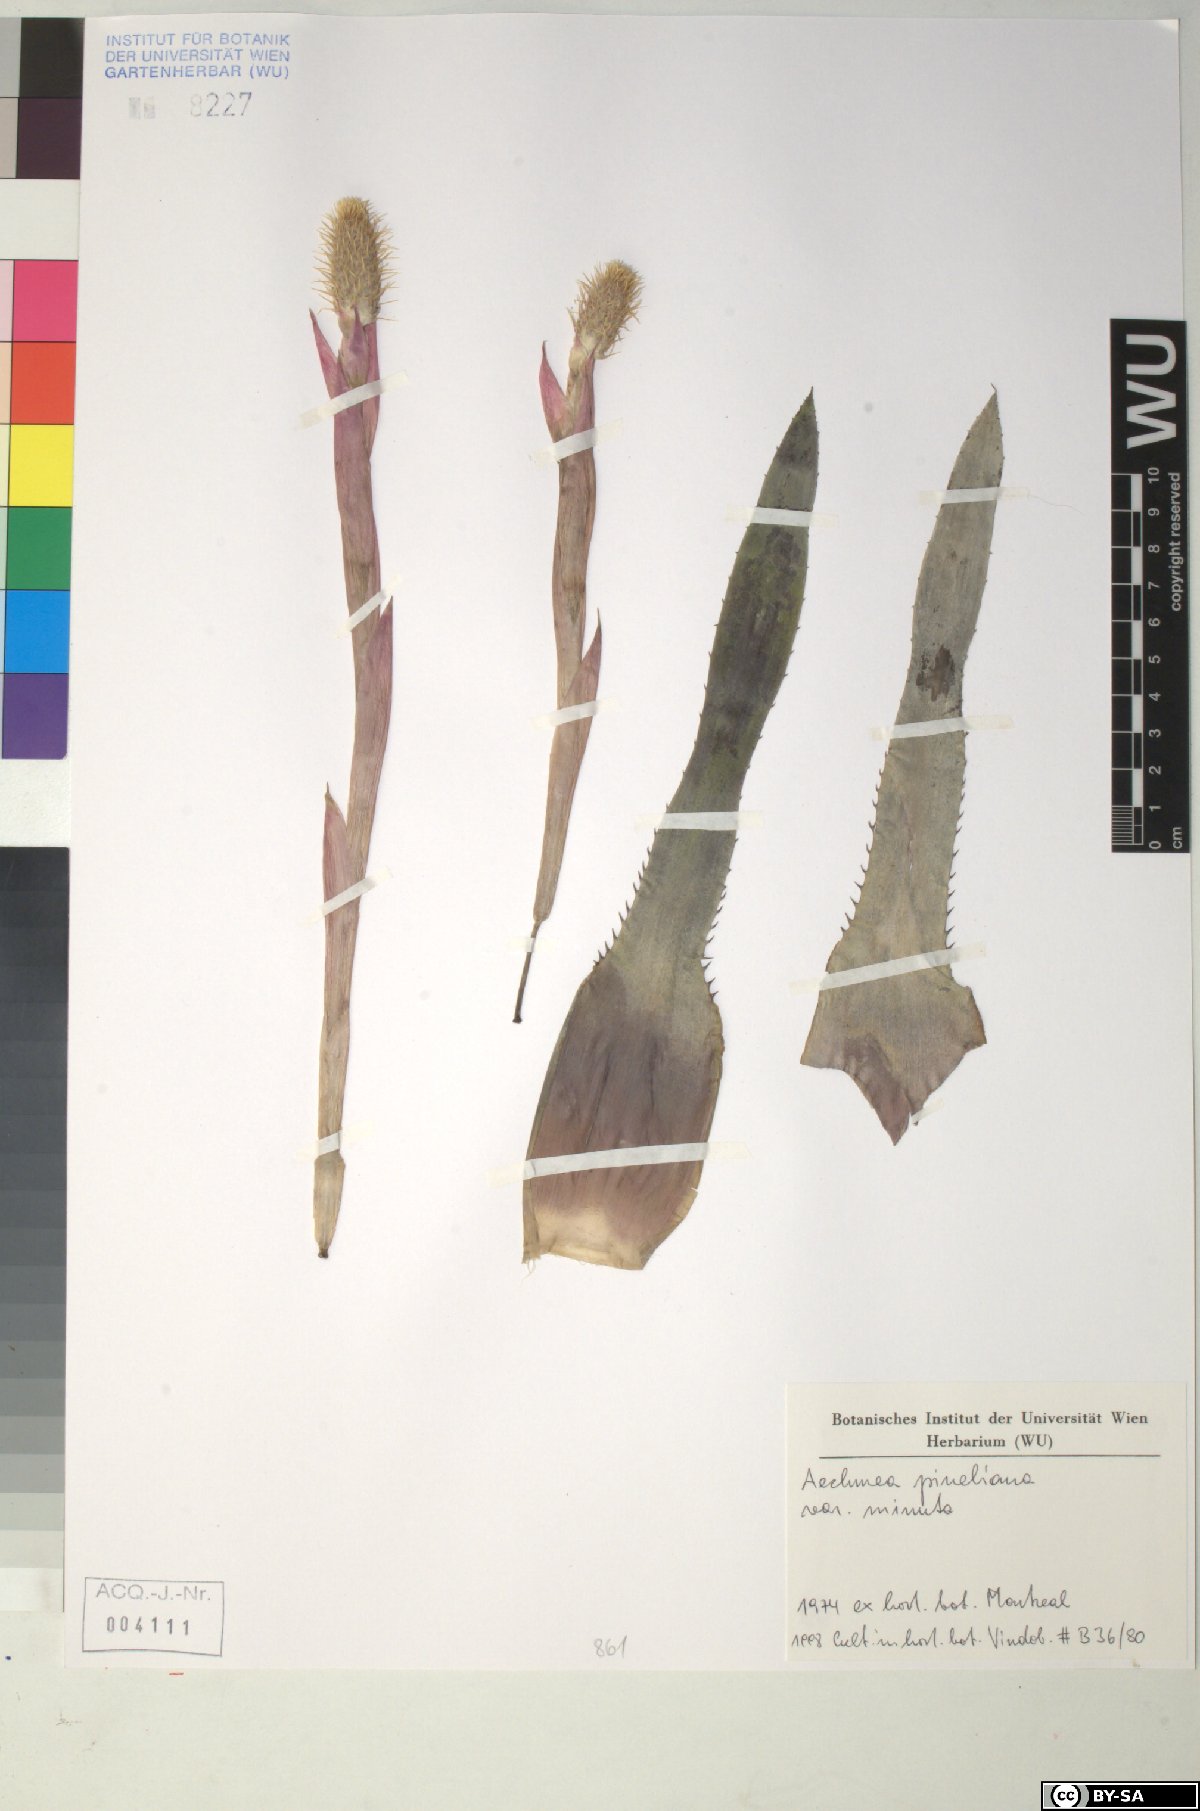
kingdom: Plantae
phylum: Tracheophyta
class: Liliopsida
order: Poales
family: Bromeliaceae
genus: Aechmea
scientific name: Aechmea pineliana
